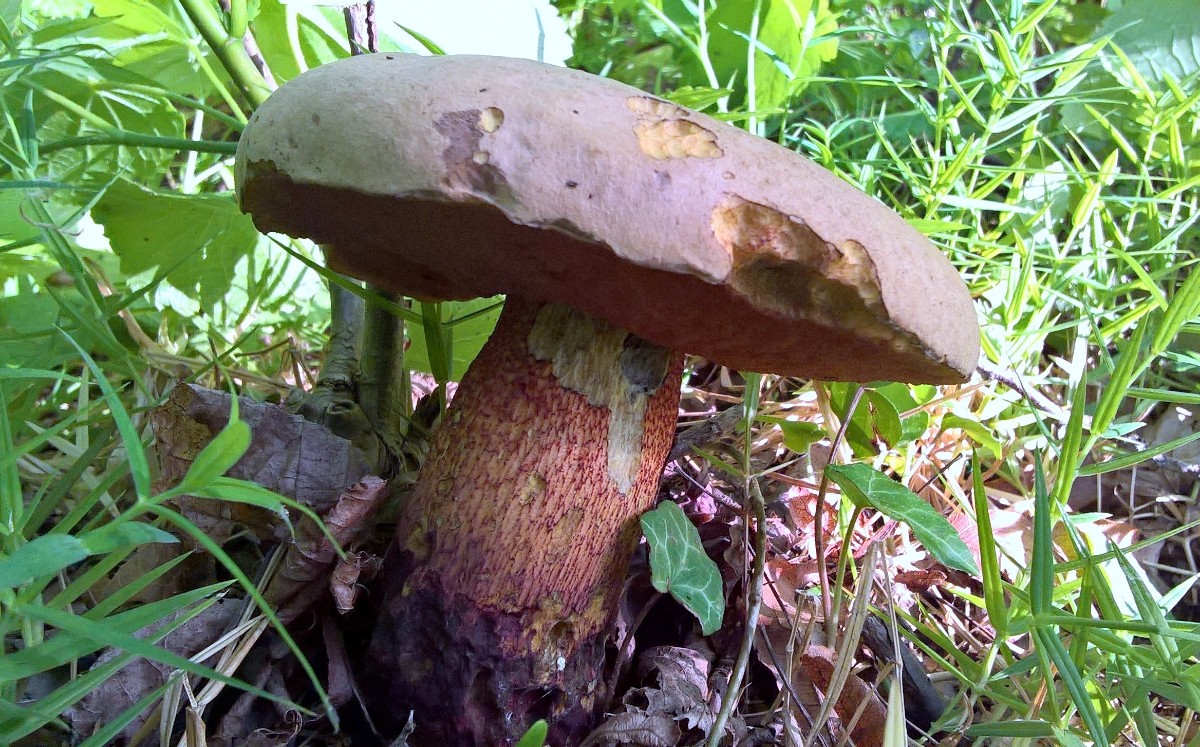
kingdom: Fungi
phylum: Basidiomycota
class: Agaricomycetes
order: Boletales
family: Boletaceae
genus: Suillellus
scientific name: Suillellus luridus
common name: netstokket indigorørhat
